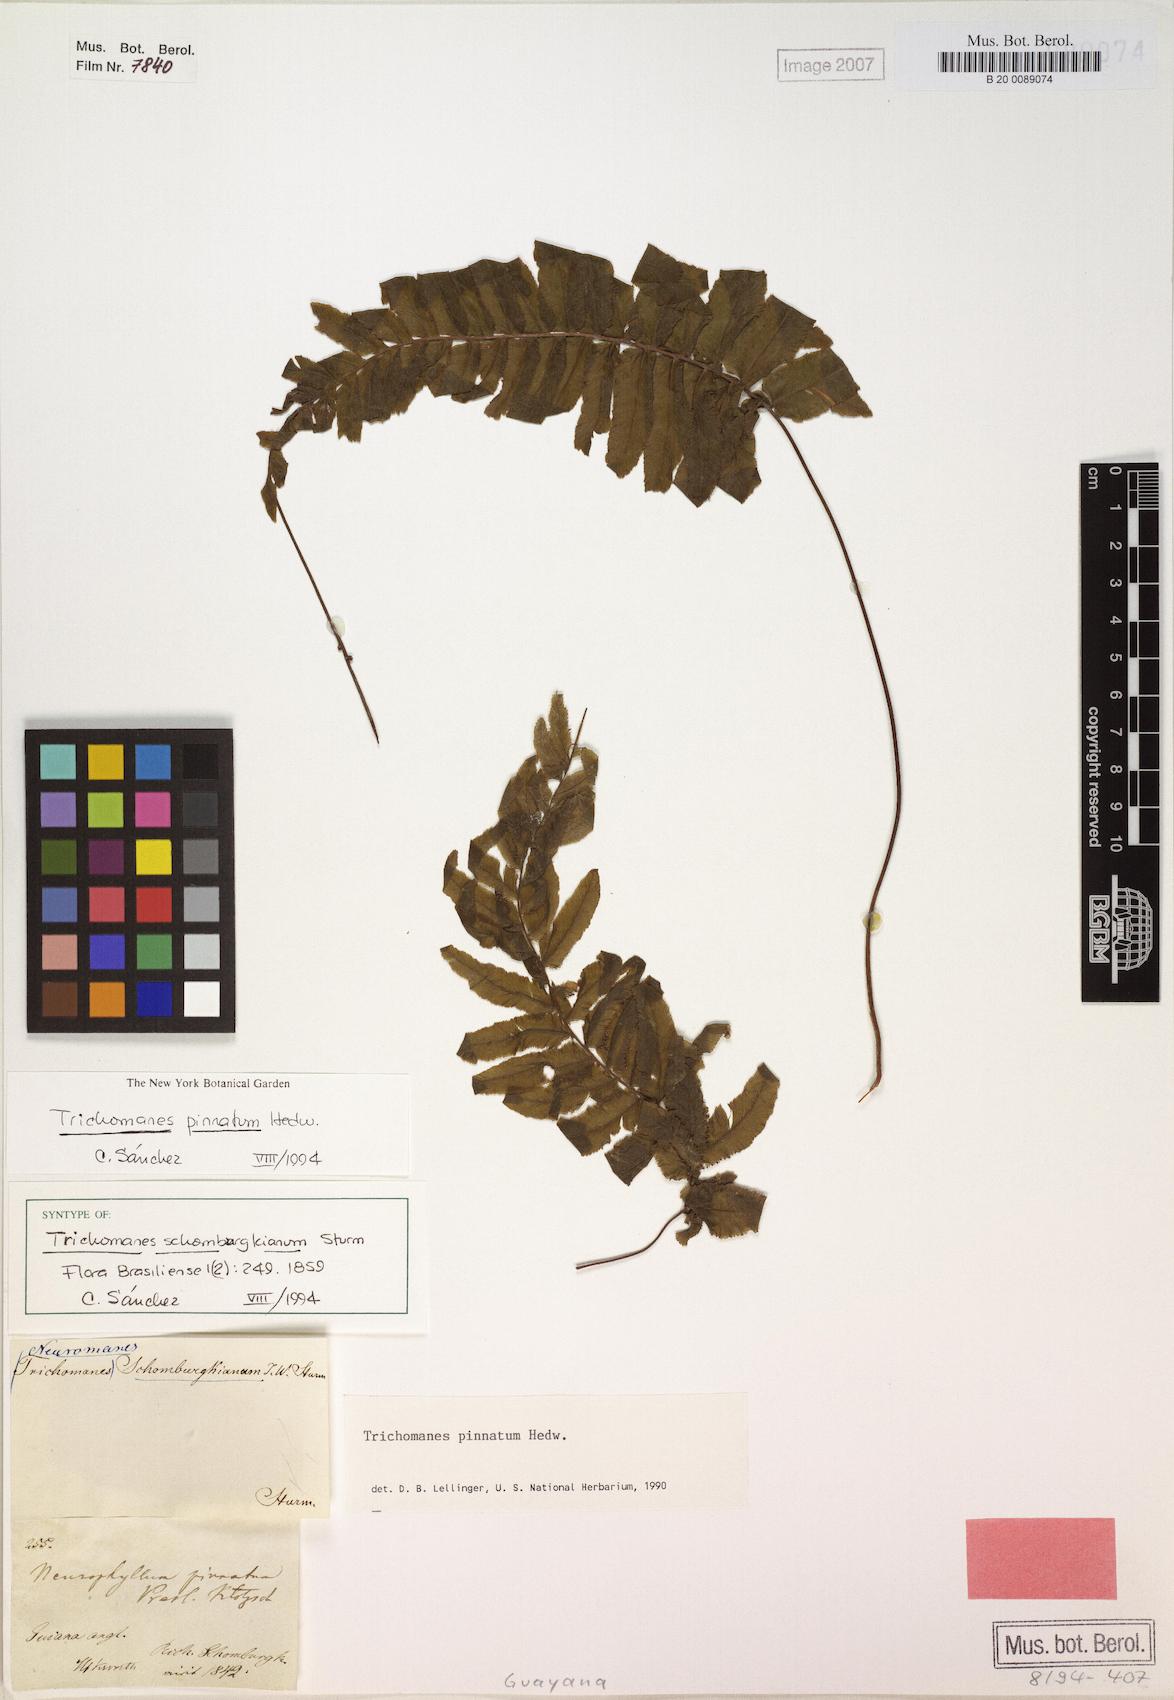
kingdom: Plantae
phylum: Tracheophyta
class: Polypodiopsida
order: Hymenophyllales
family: Hymenophyllaceae
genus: Trichomanes
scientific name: Trichomanes pinnatum
